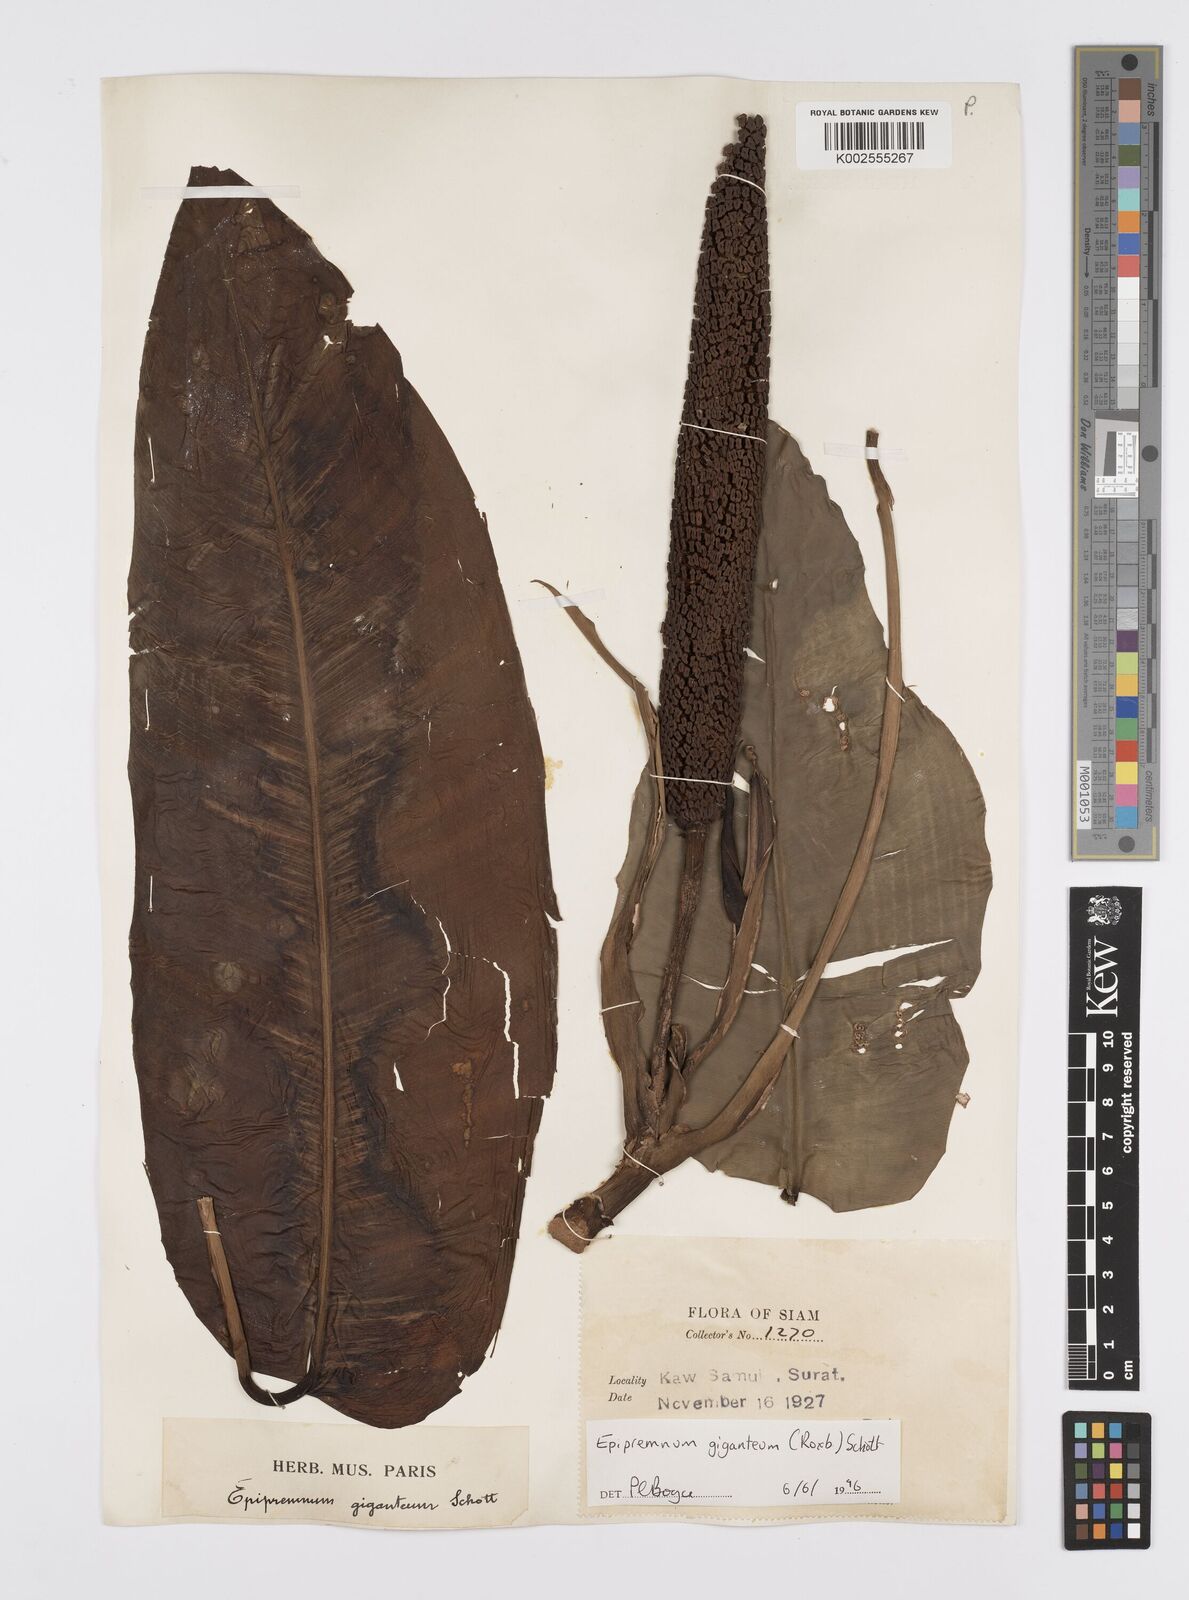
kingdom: Plantae
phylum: Tracheophyta
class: Liliopsida
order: Alismatales
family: Araceae
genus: Epipremnum
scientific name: Epipremnum giganteum
